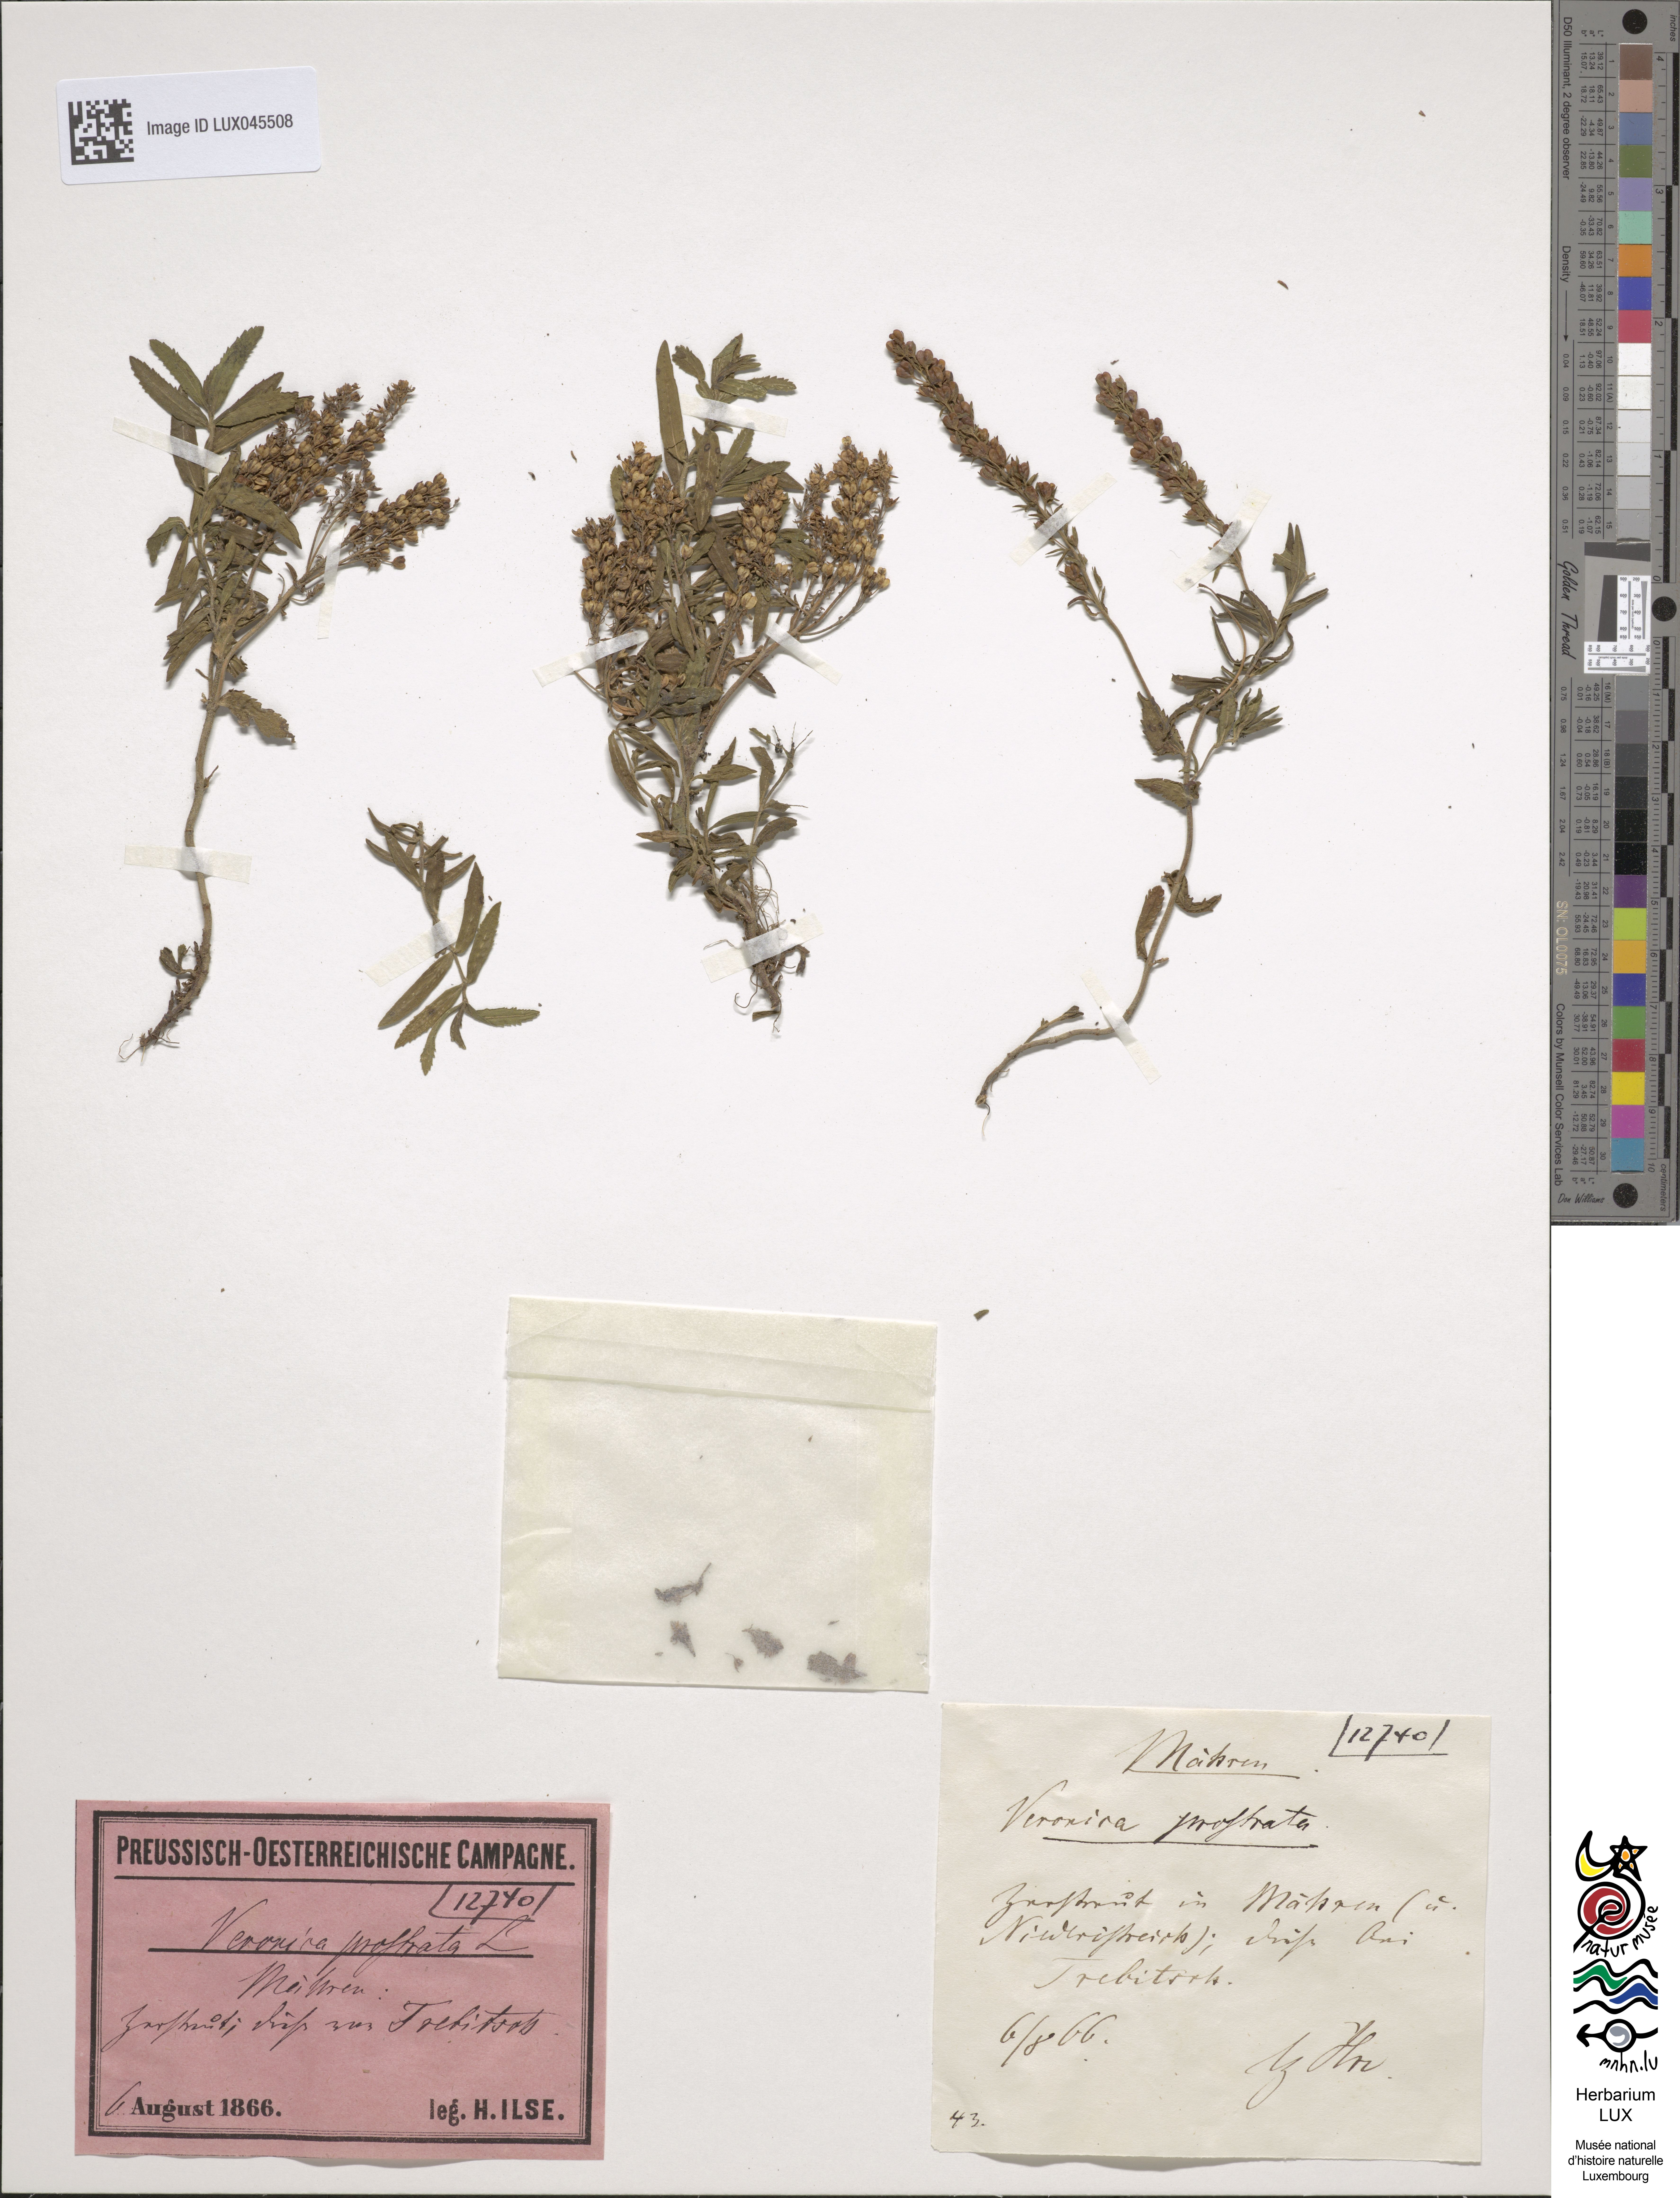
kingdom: Plantae
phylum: Tracheophyta
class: Magnoliopsida
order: Lamiales
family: Plantaginaceae
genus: Veronica
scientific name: Veronica prostrata
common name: Prostrate speedwell
